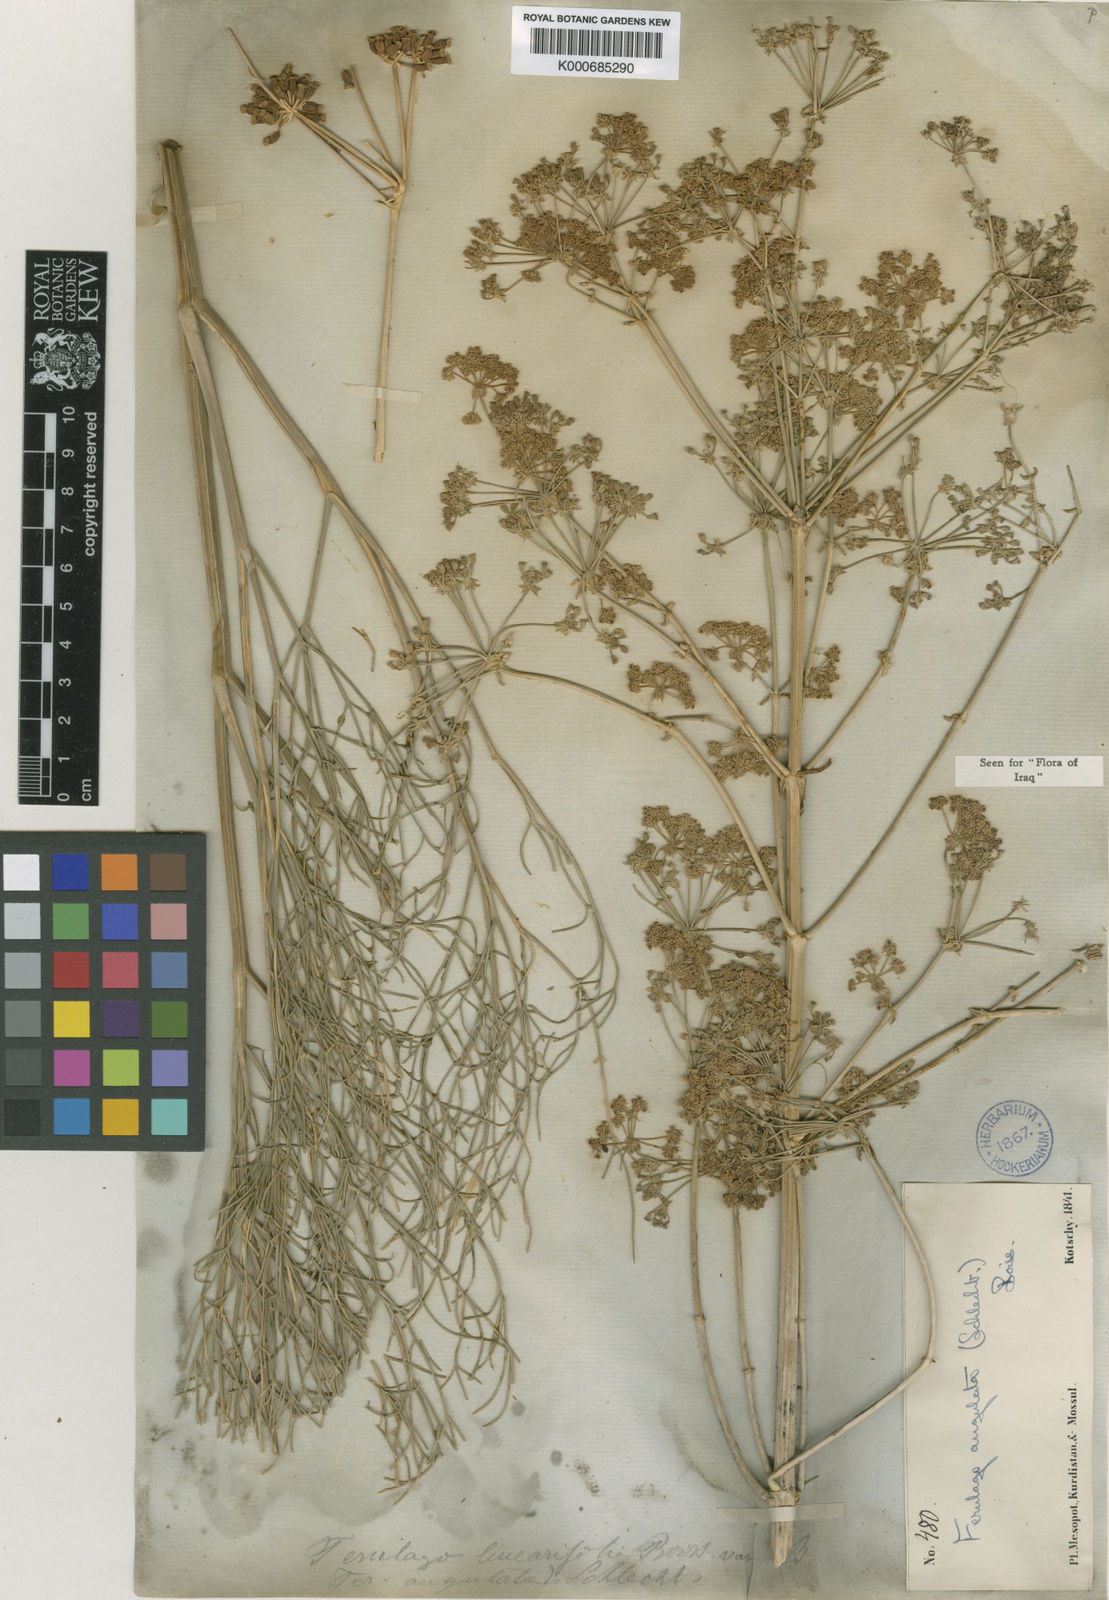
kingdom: Plantae
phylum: Tracheophyta
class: Magnoliopsida
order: Apiales
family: Apiaceae
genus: Ferulago
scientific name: Ferulago angulata
